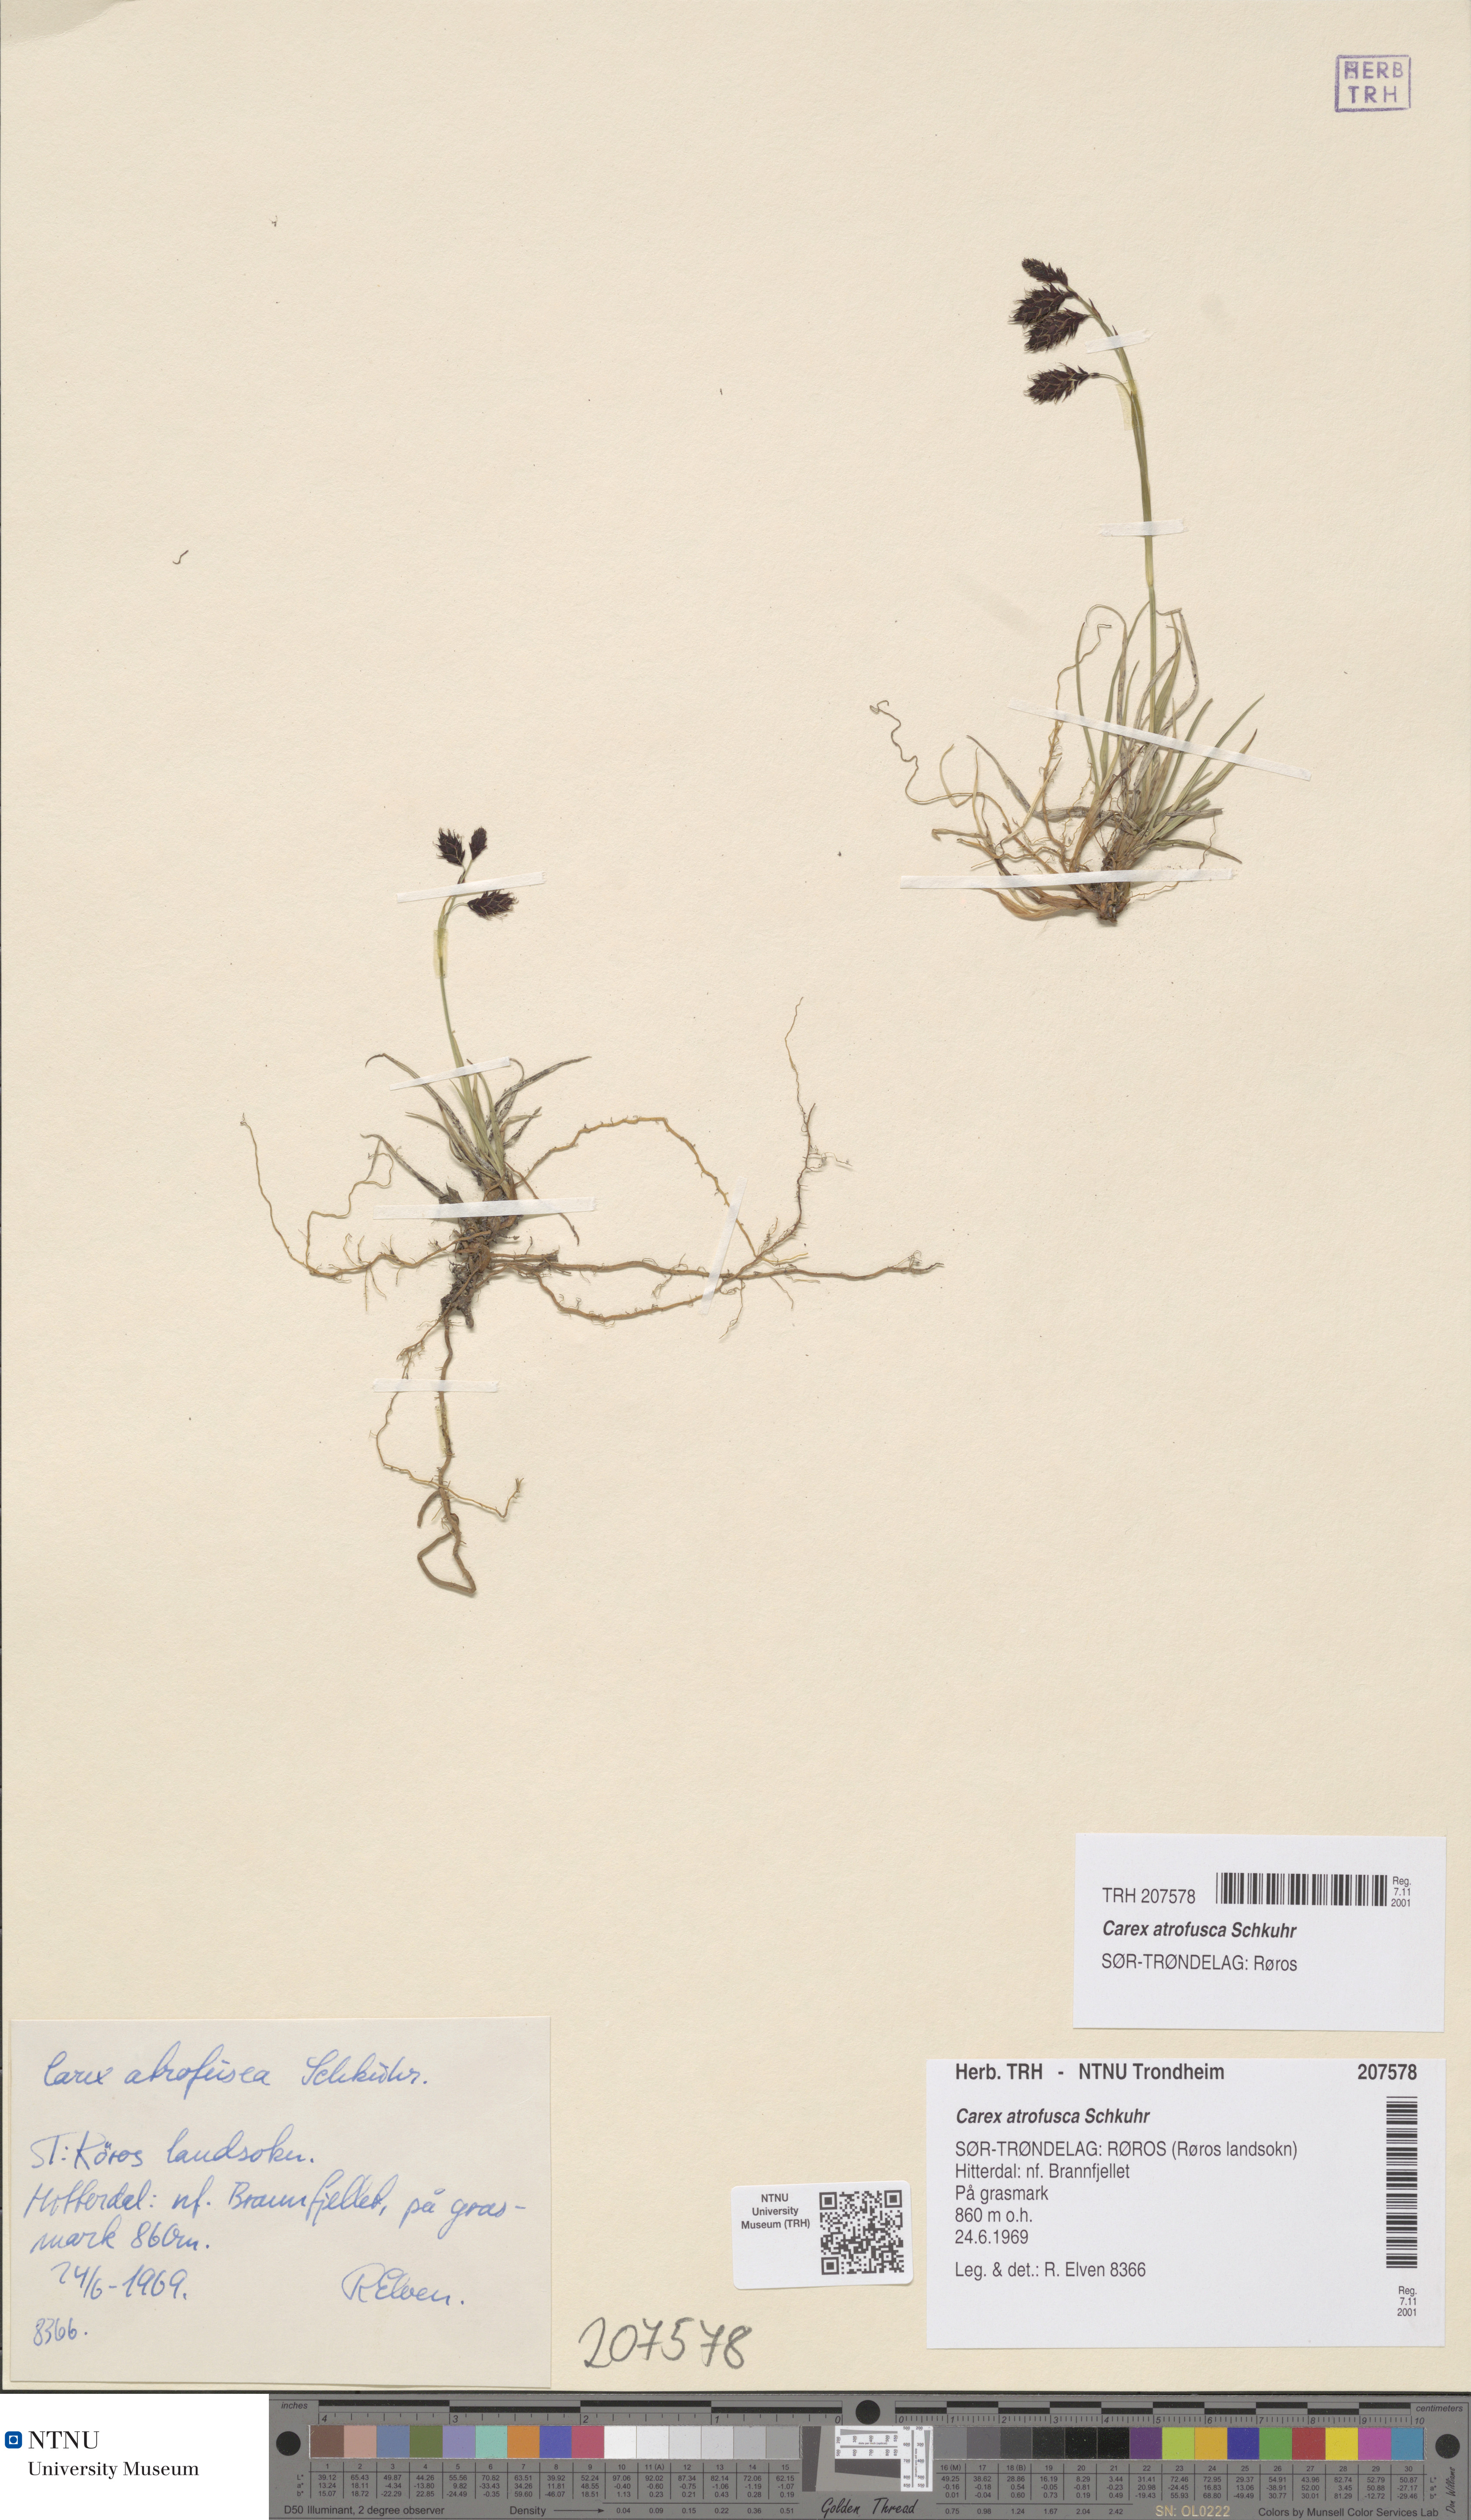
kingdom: Plantae
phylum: Tracheophyta
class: Liliopsida
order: Poales
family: Cyperaceae
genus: Carex
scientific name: Carex atrofusca
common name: Scorched alpine-sedge
